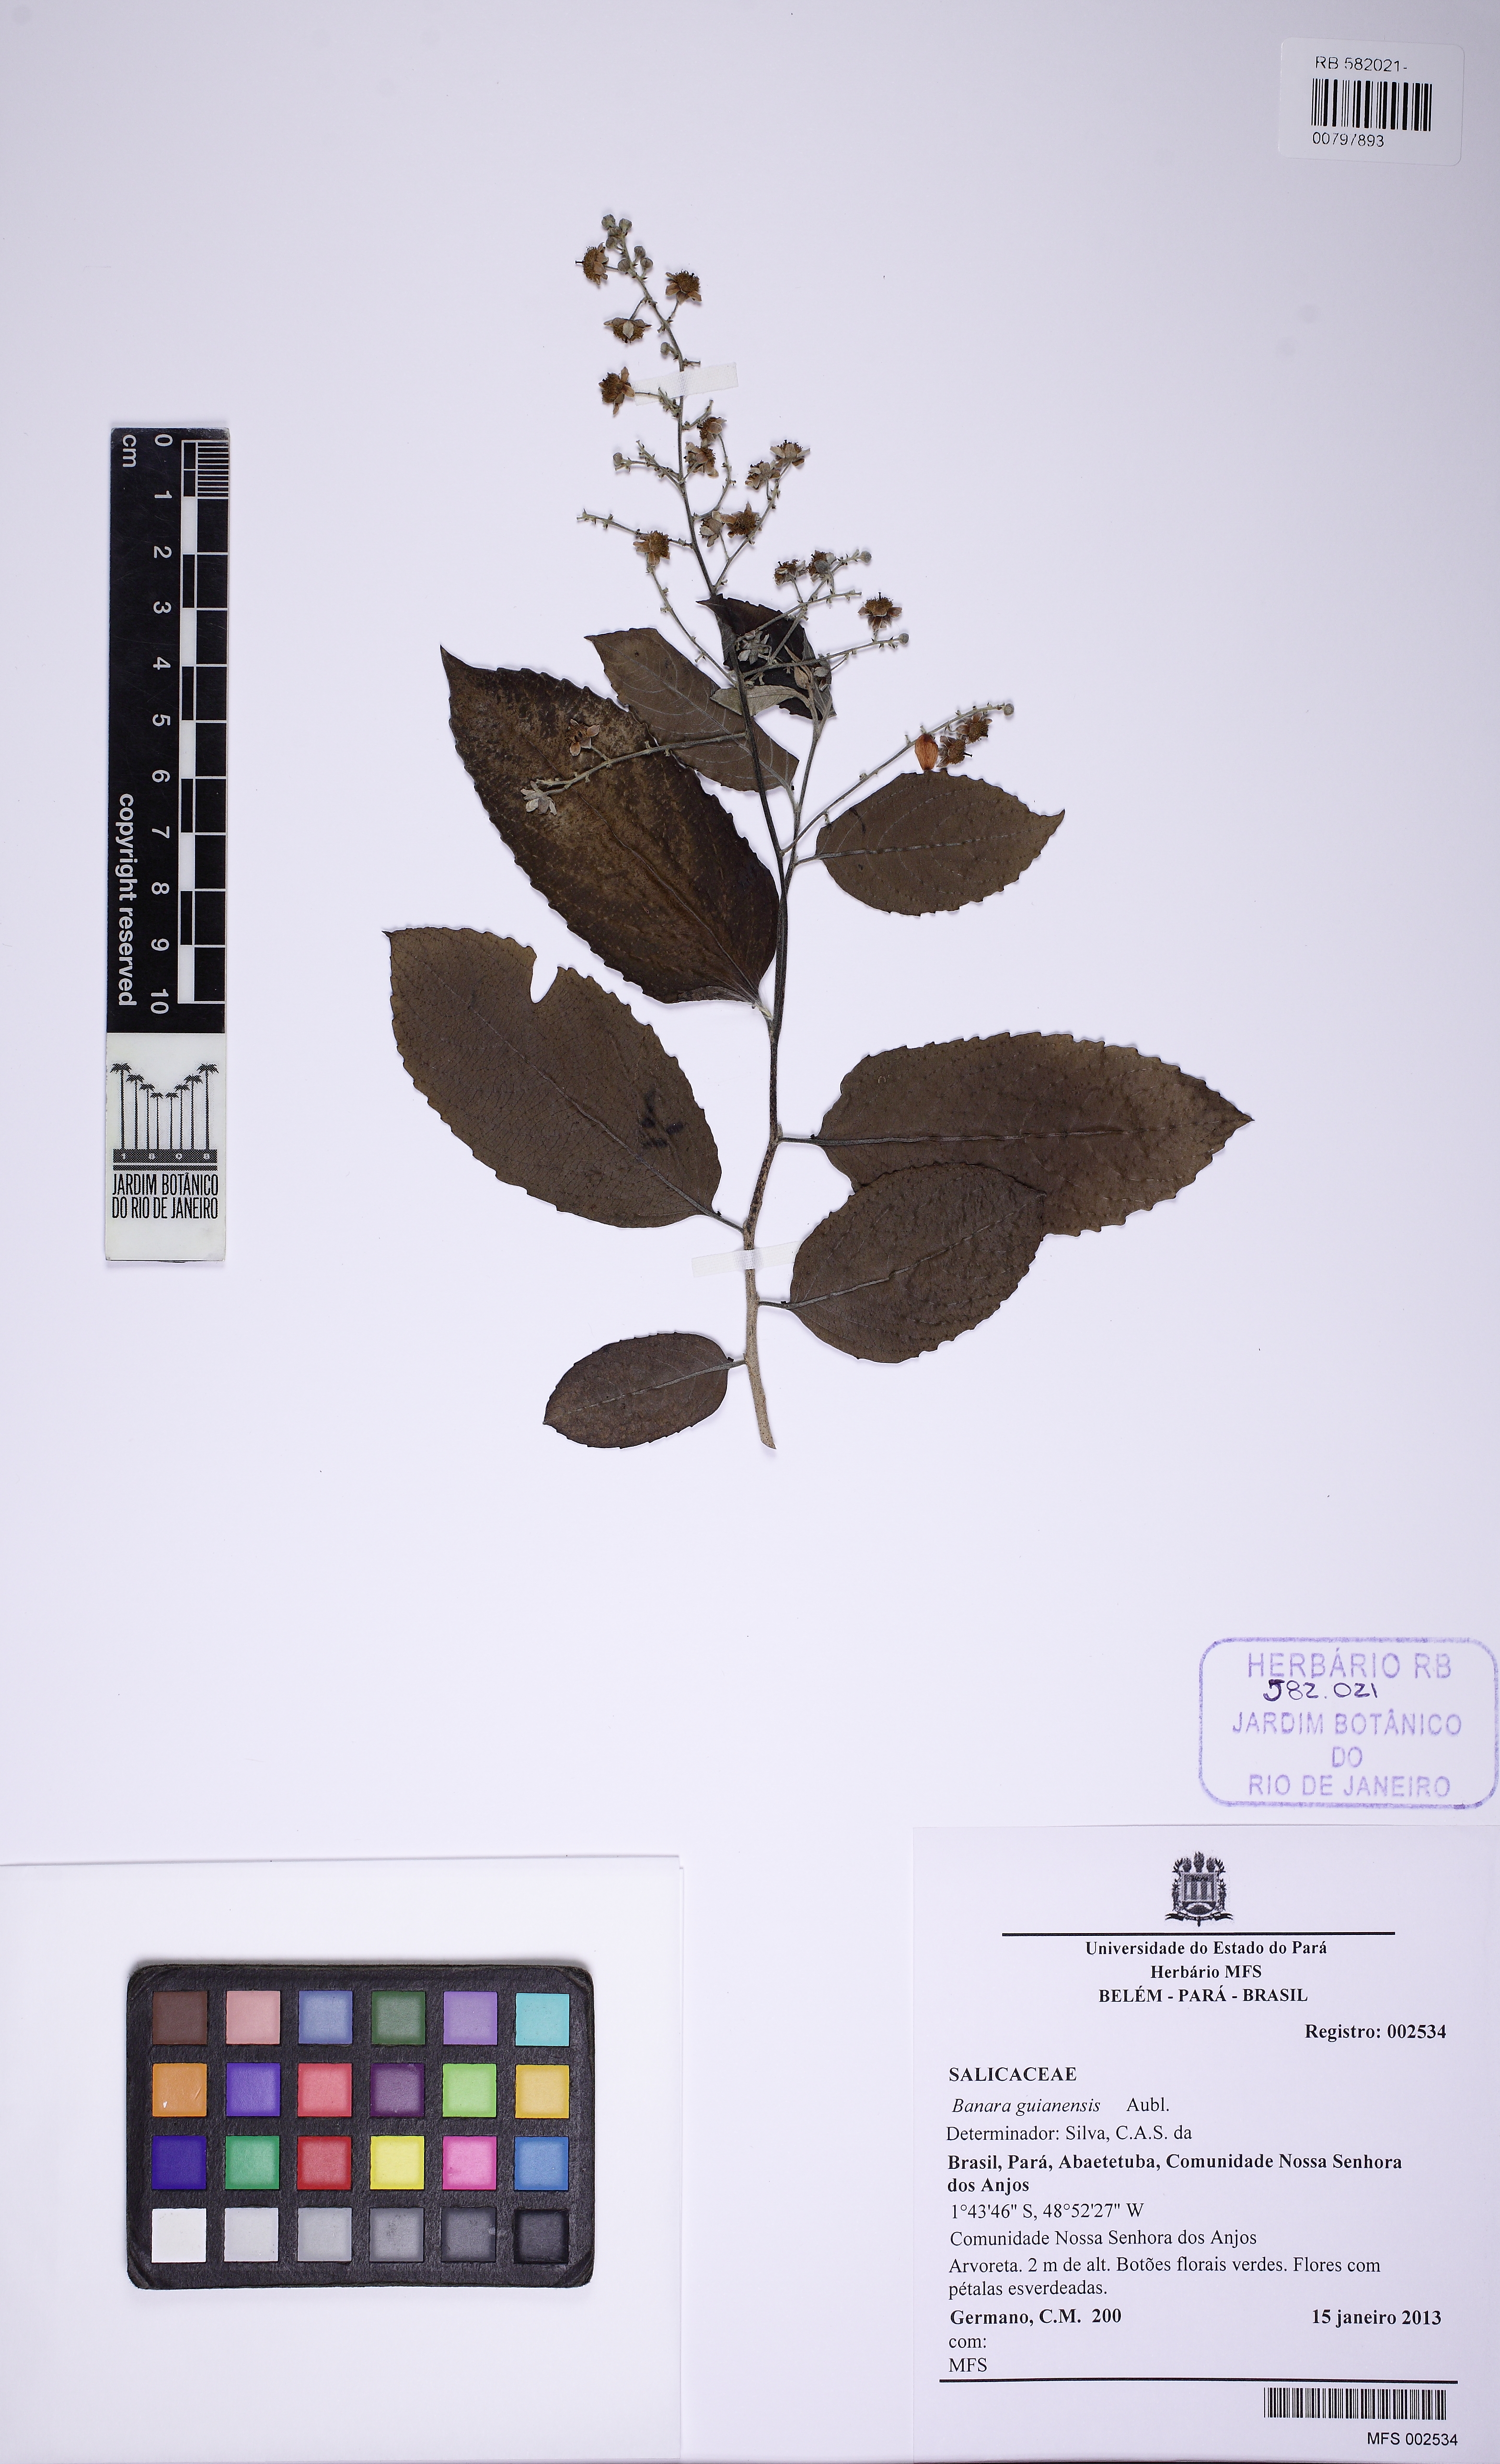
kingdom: Plantae
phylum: Tracheophyta
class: Magnoliopsida
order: Malpighiales
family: Salicaceae
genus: Banara
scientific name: Banara guianensis
